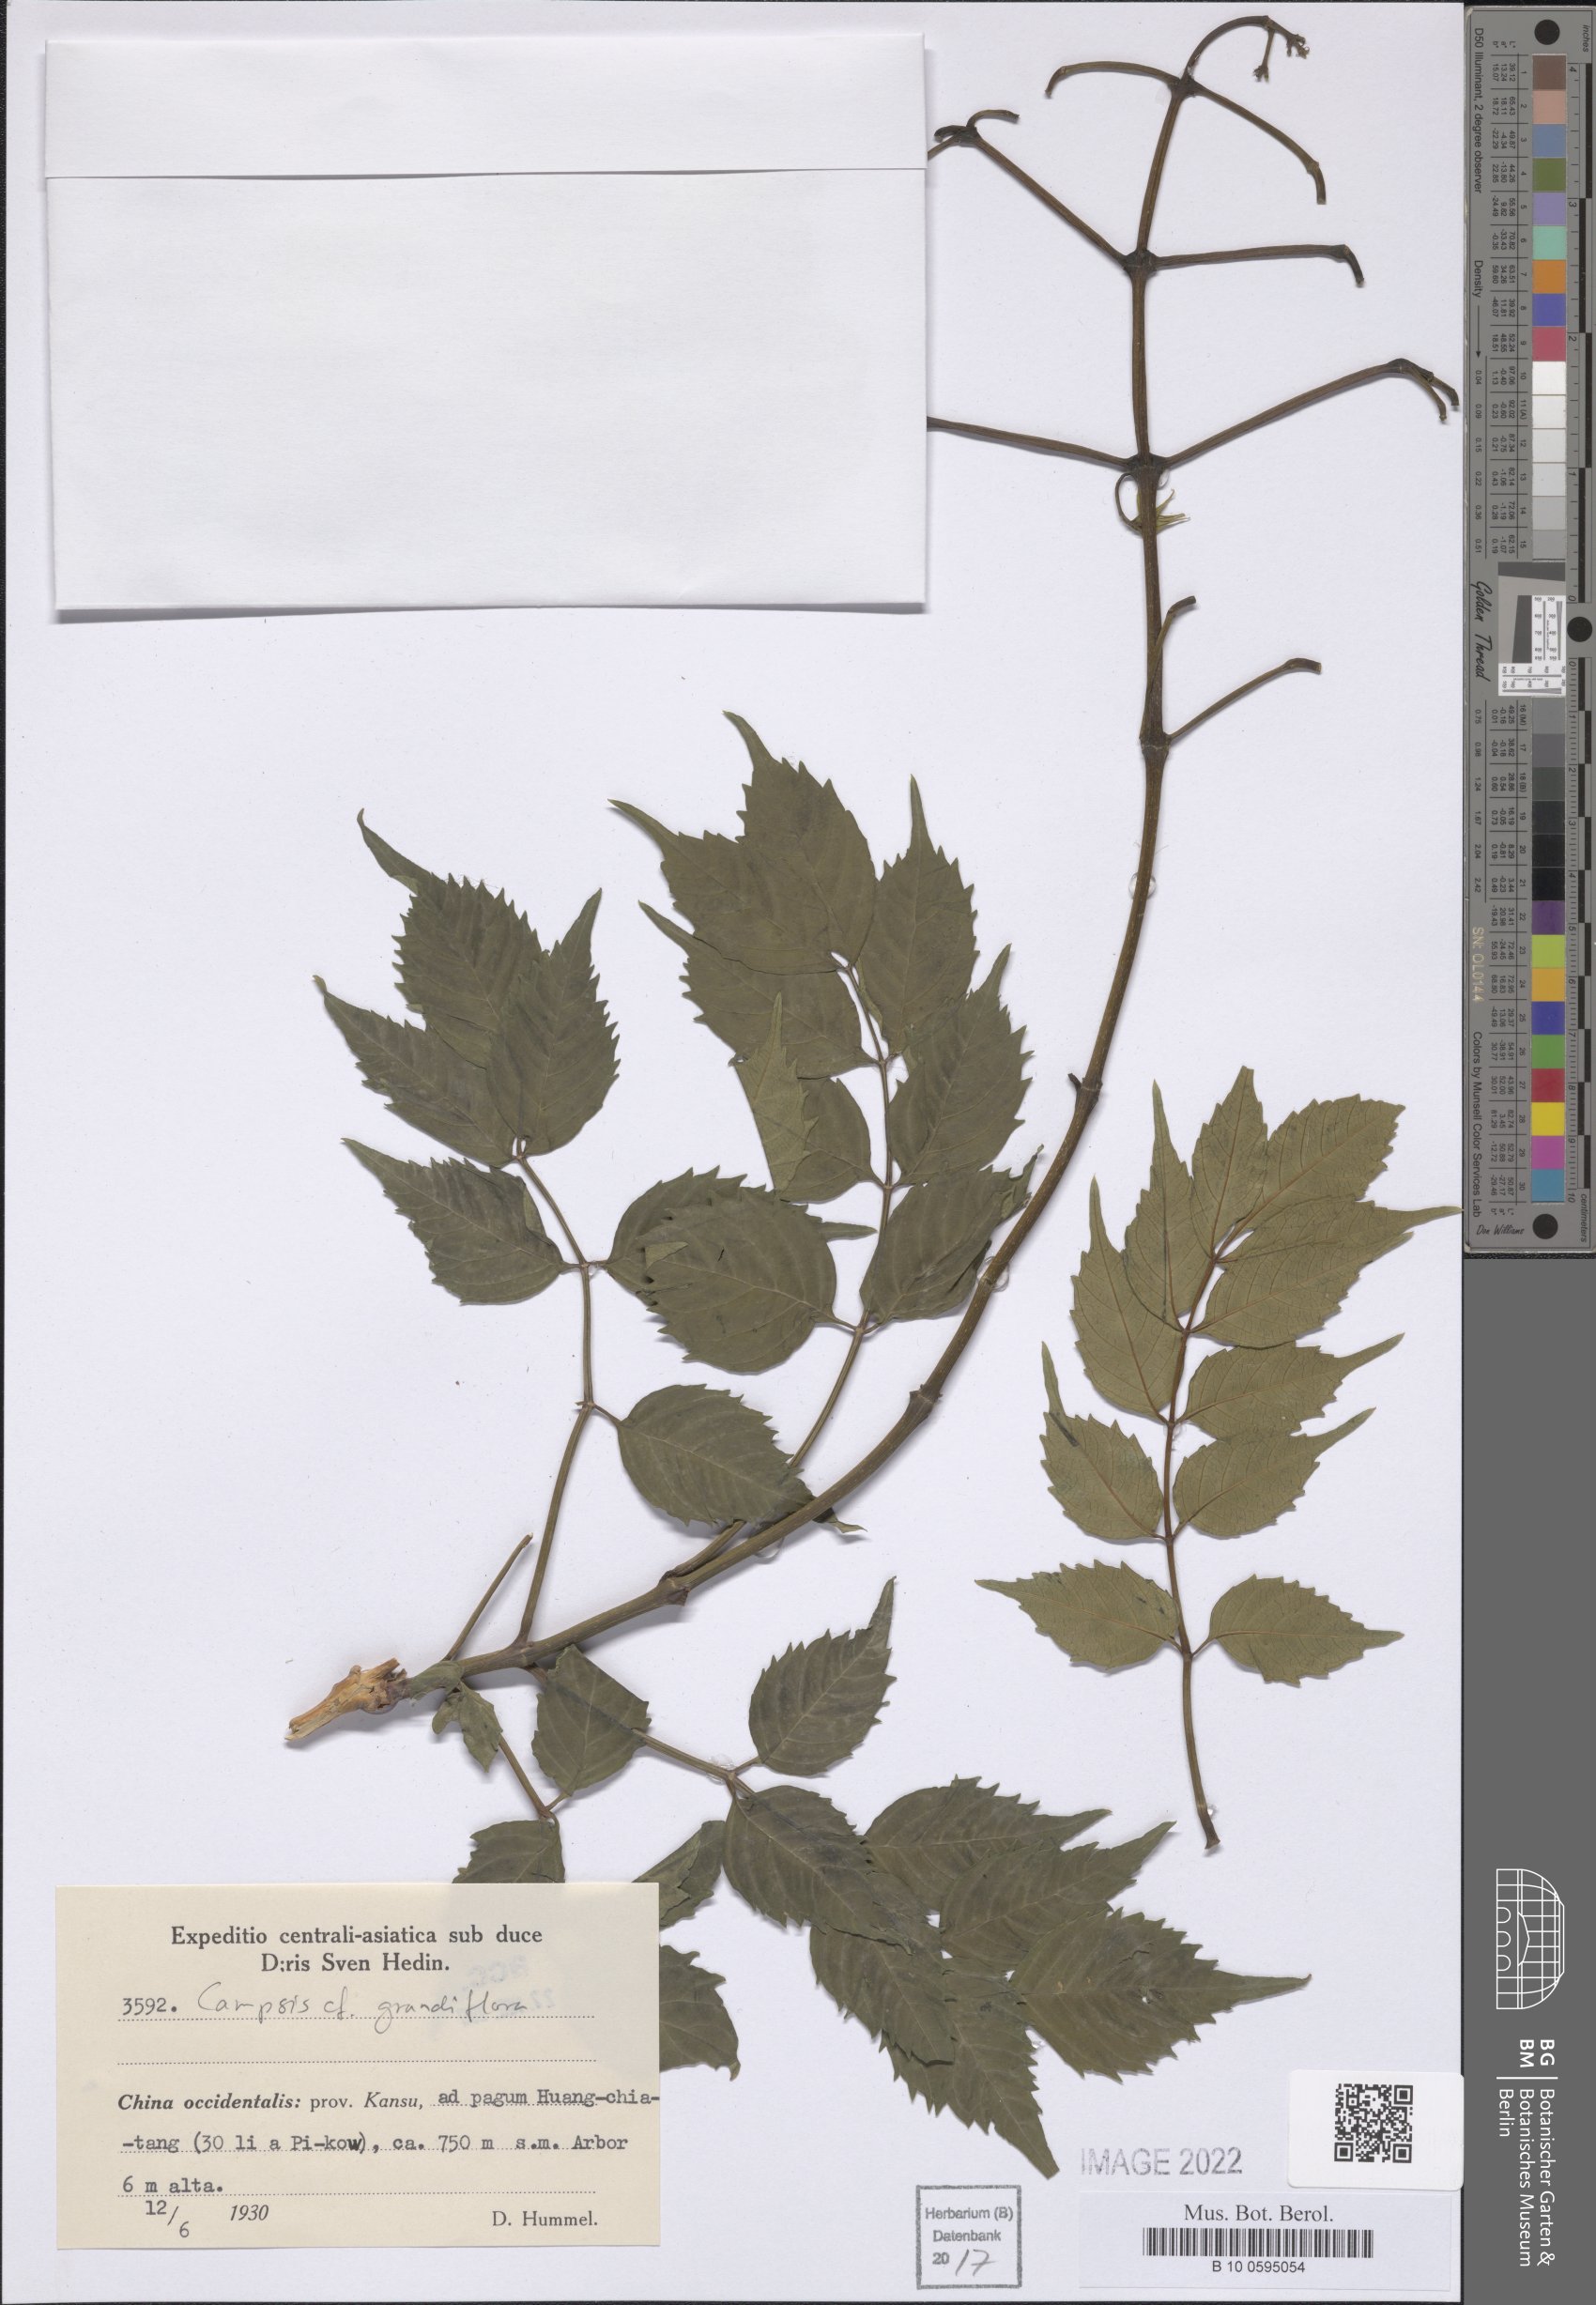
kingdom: Plantae
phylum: Tracheophyta
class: Magnoliopsida
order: Lamiales
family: Bignoniaceae
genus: Campsis
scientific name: Campsis grandiflora
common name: Chinese trumpet-creeper
